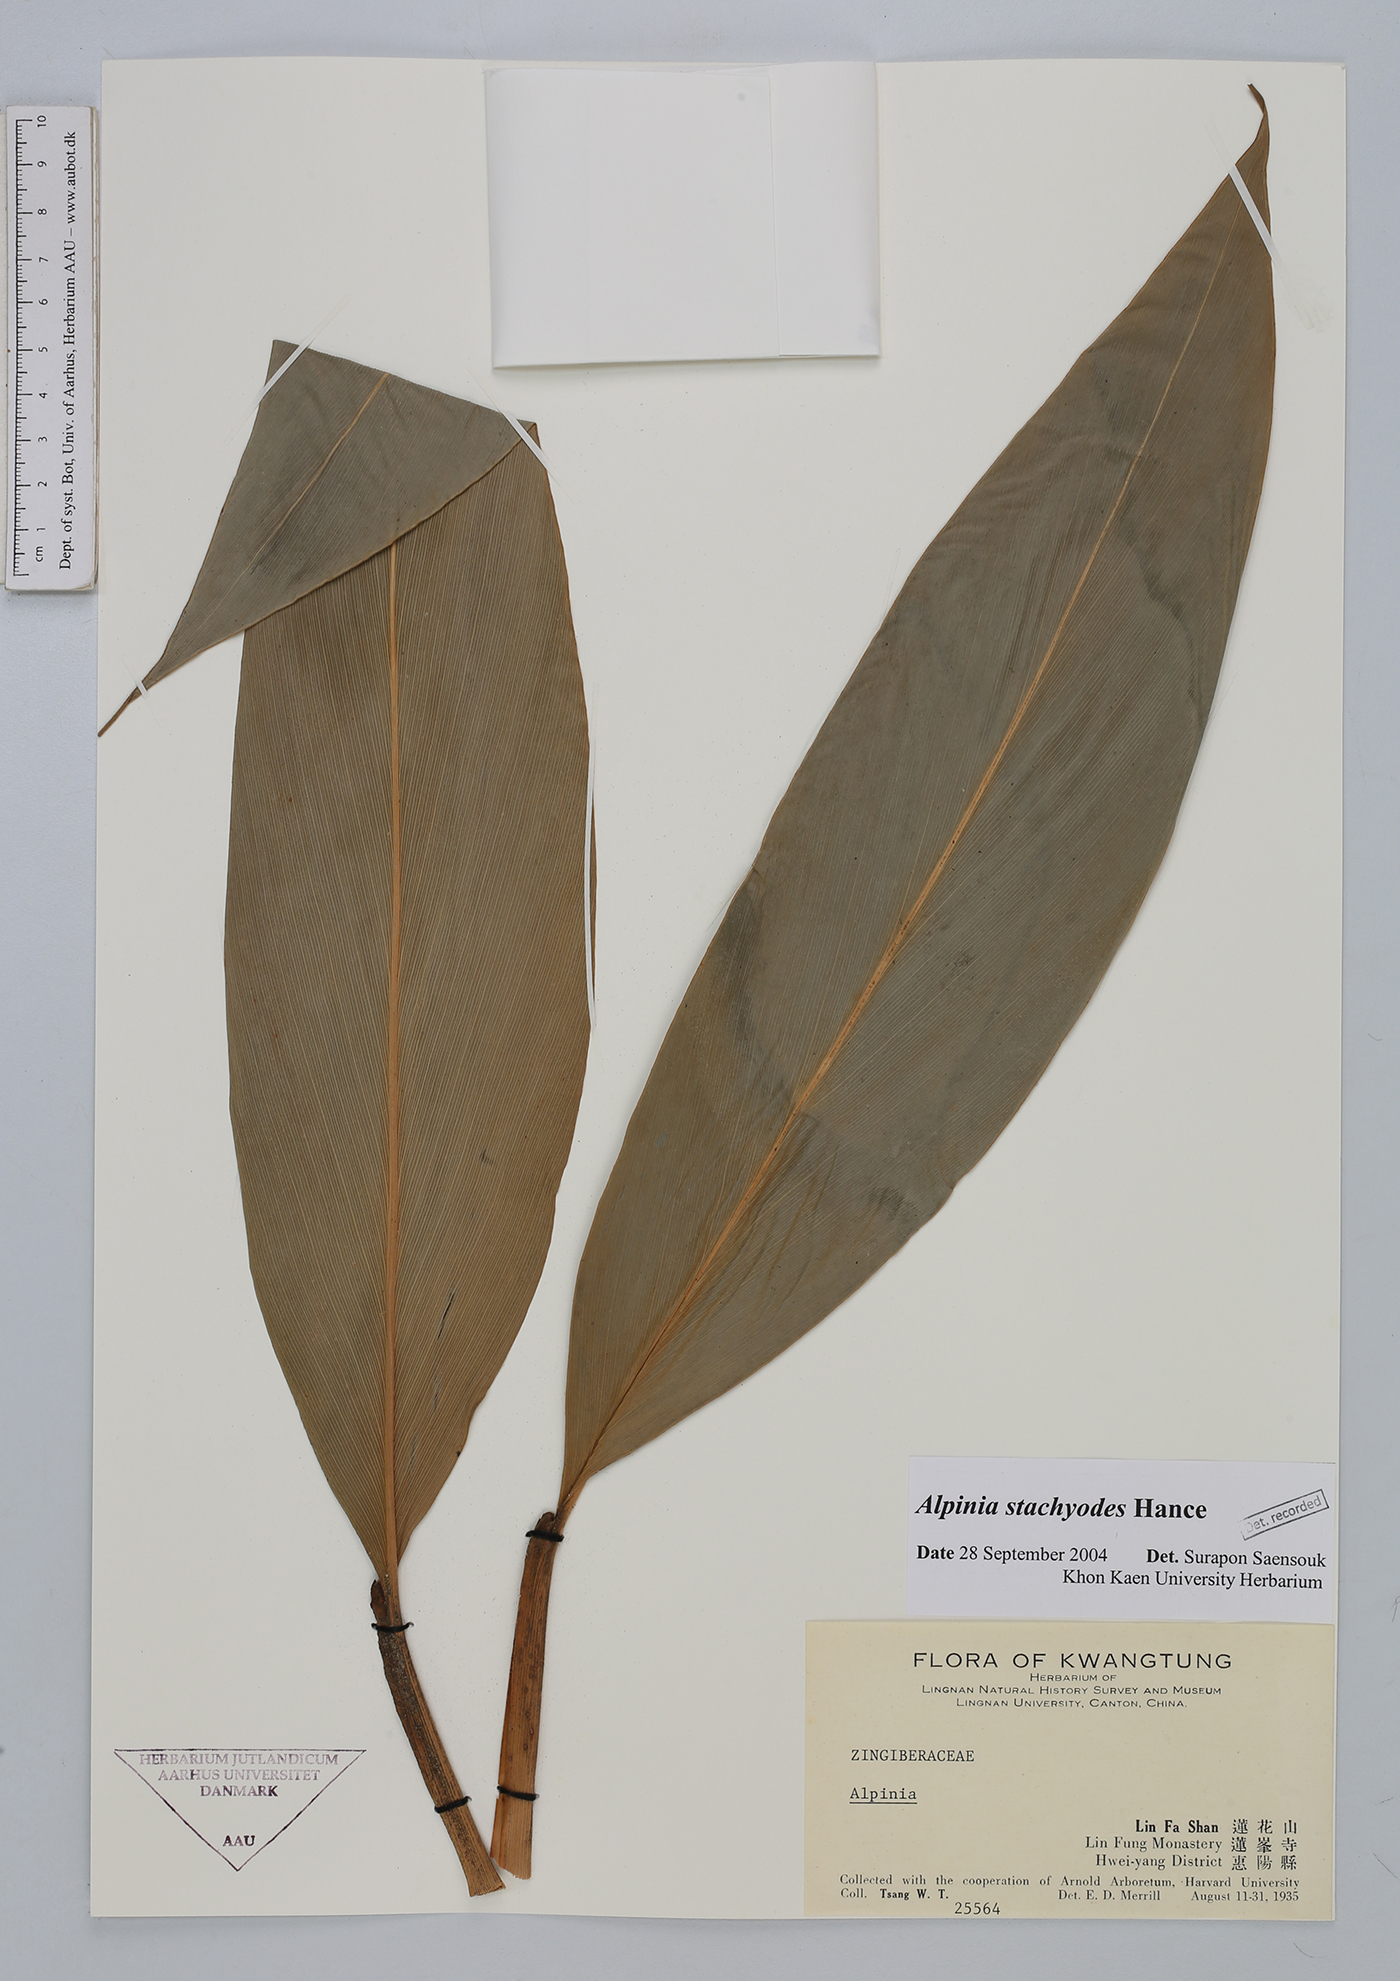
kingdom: Plantae
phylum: Tracheophyta
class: Liliopsida
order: Zingiberales
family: Zingiberaceae
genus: Alpinia
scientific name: Alpinia stachyodes
